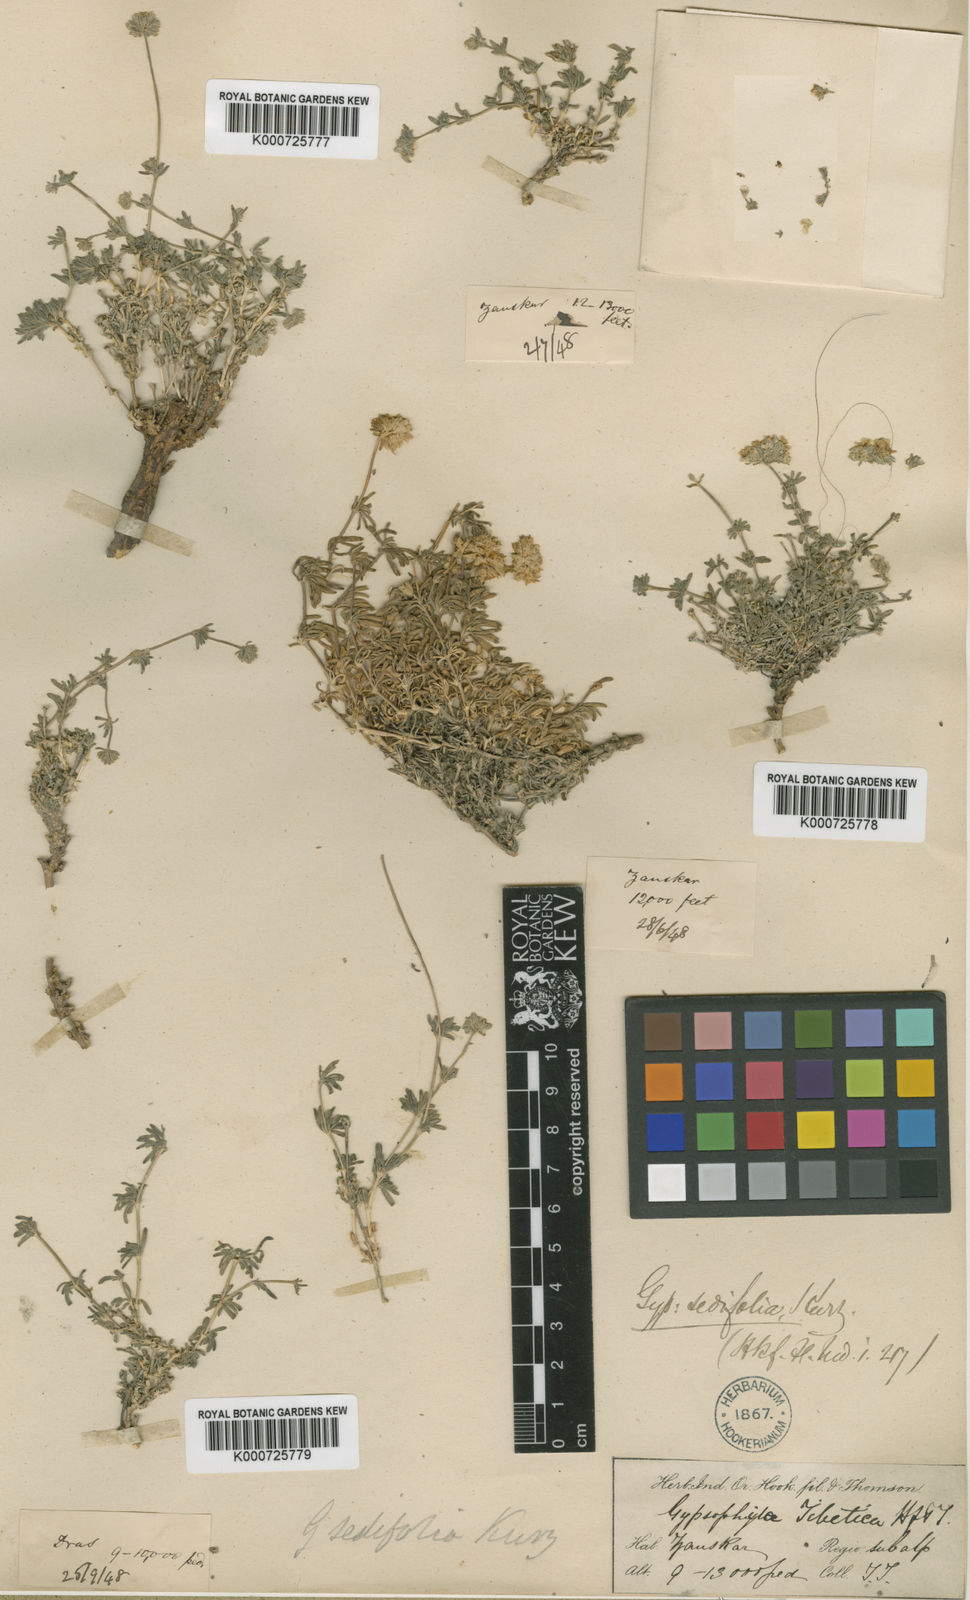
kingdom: Plantae
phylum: Tracheophyta
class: Magnoliopsida
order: Caryophyllales
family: Caryophyllaceae
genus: Acanthophyllum
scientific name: Acanthophyllum sedifolium
